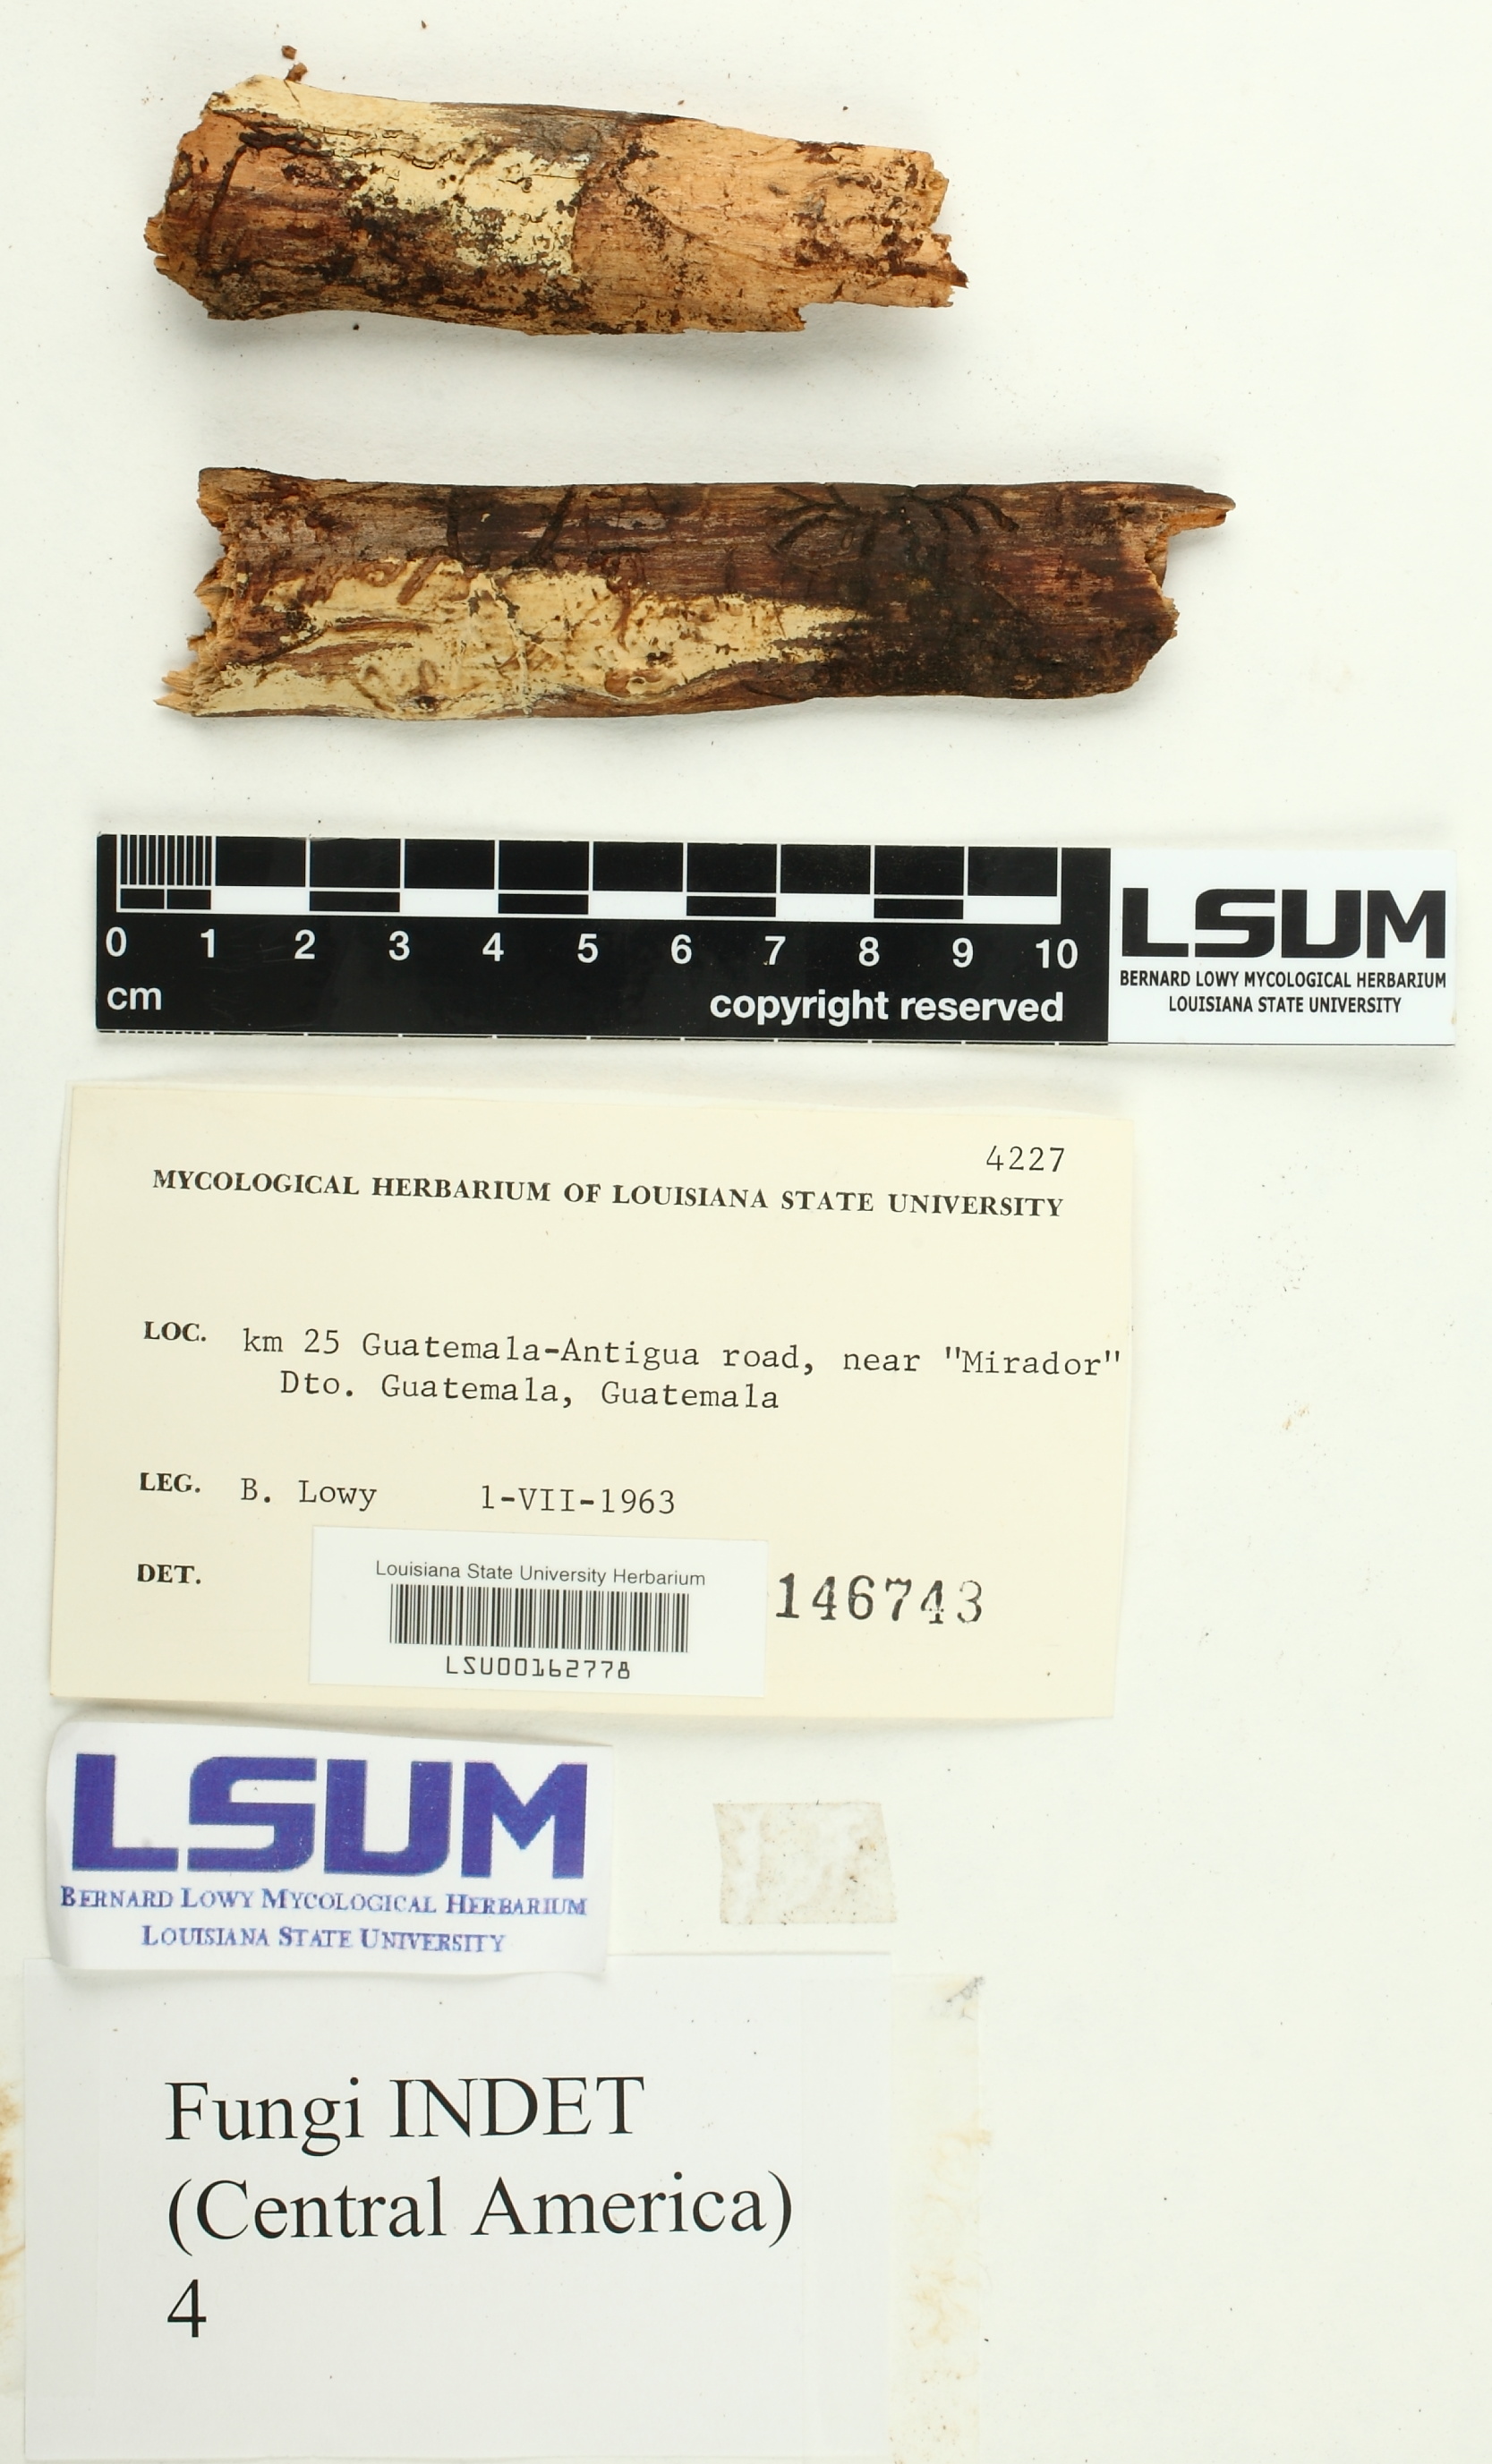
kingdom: Fungi
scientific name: Fungi
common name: Fungi
